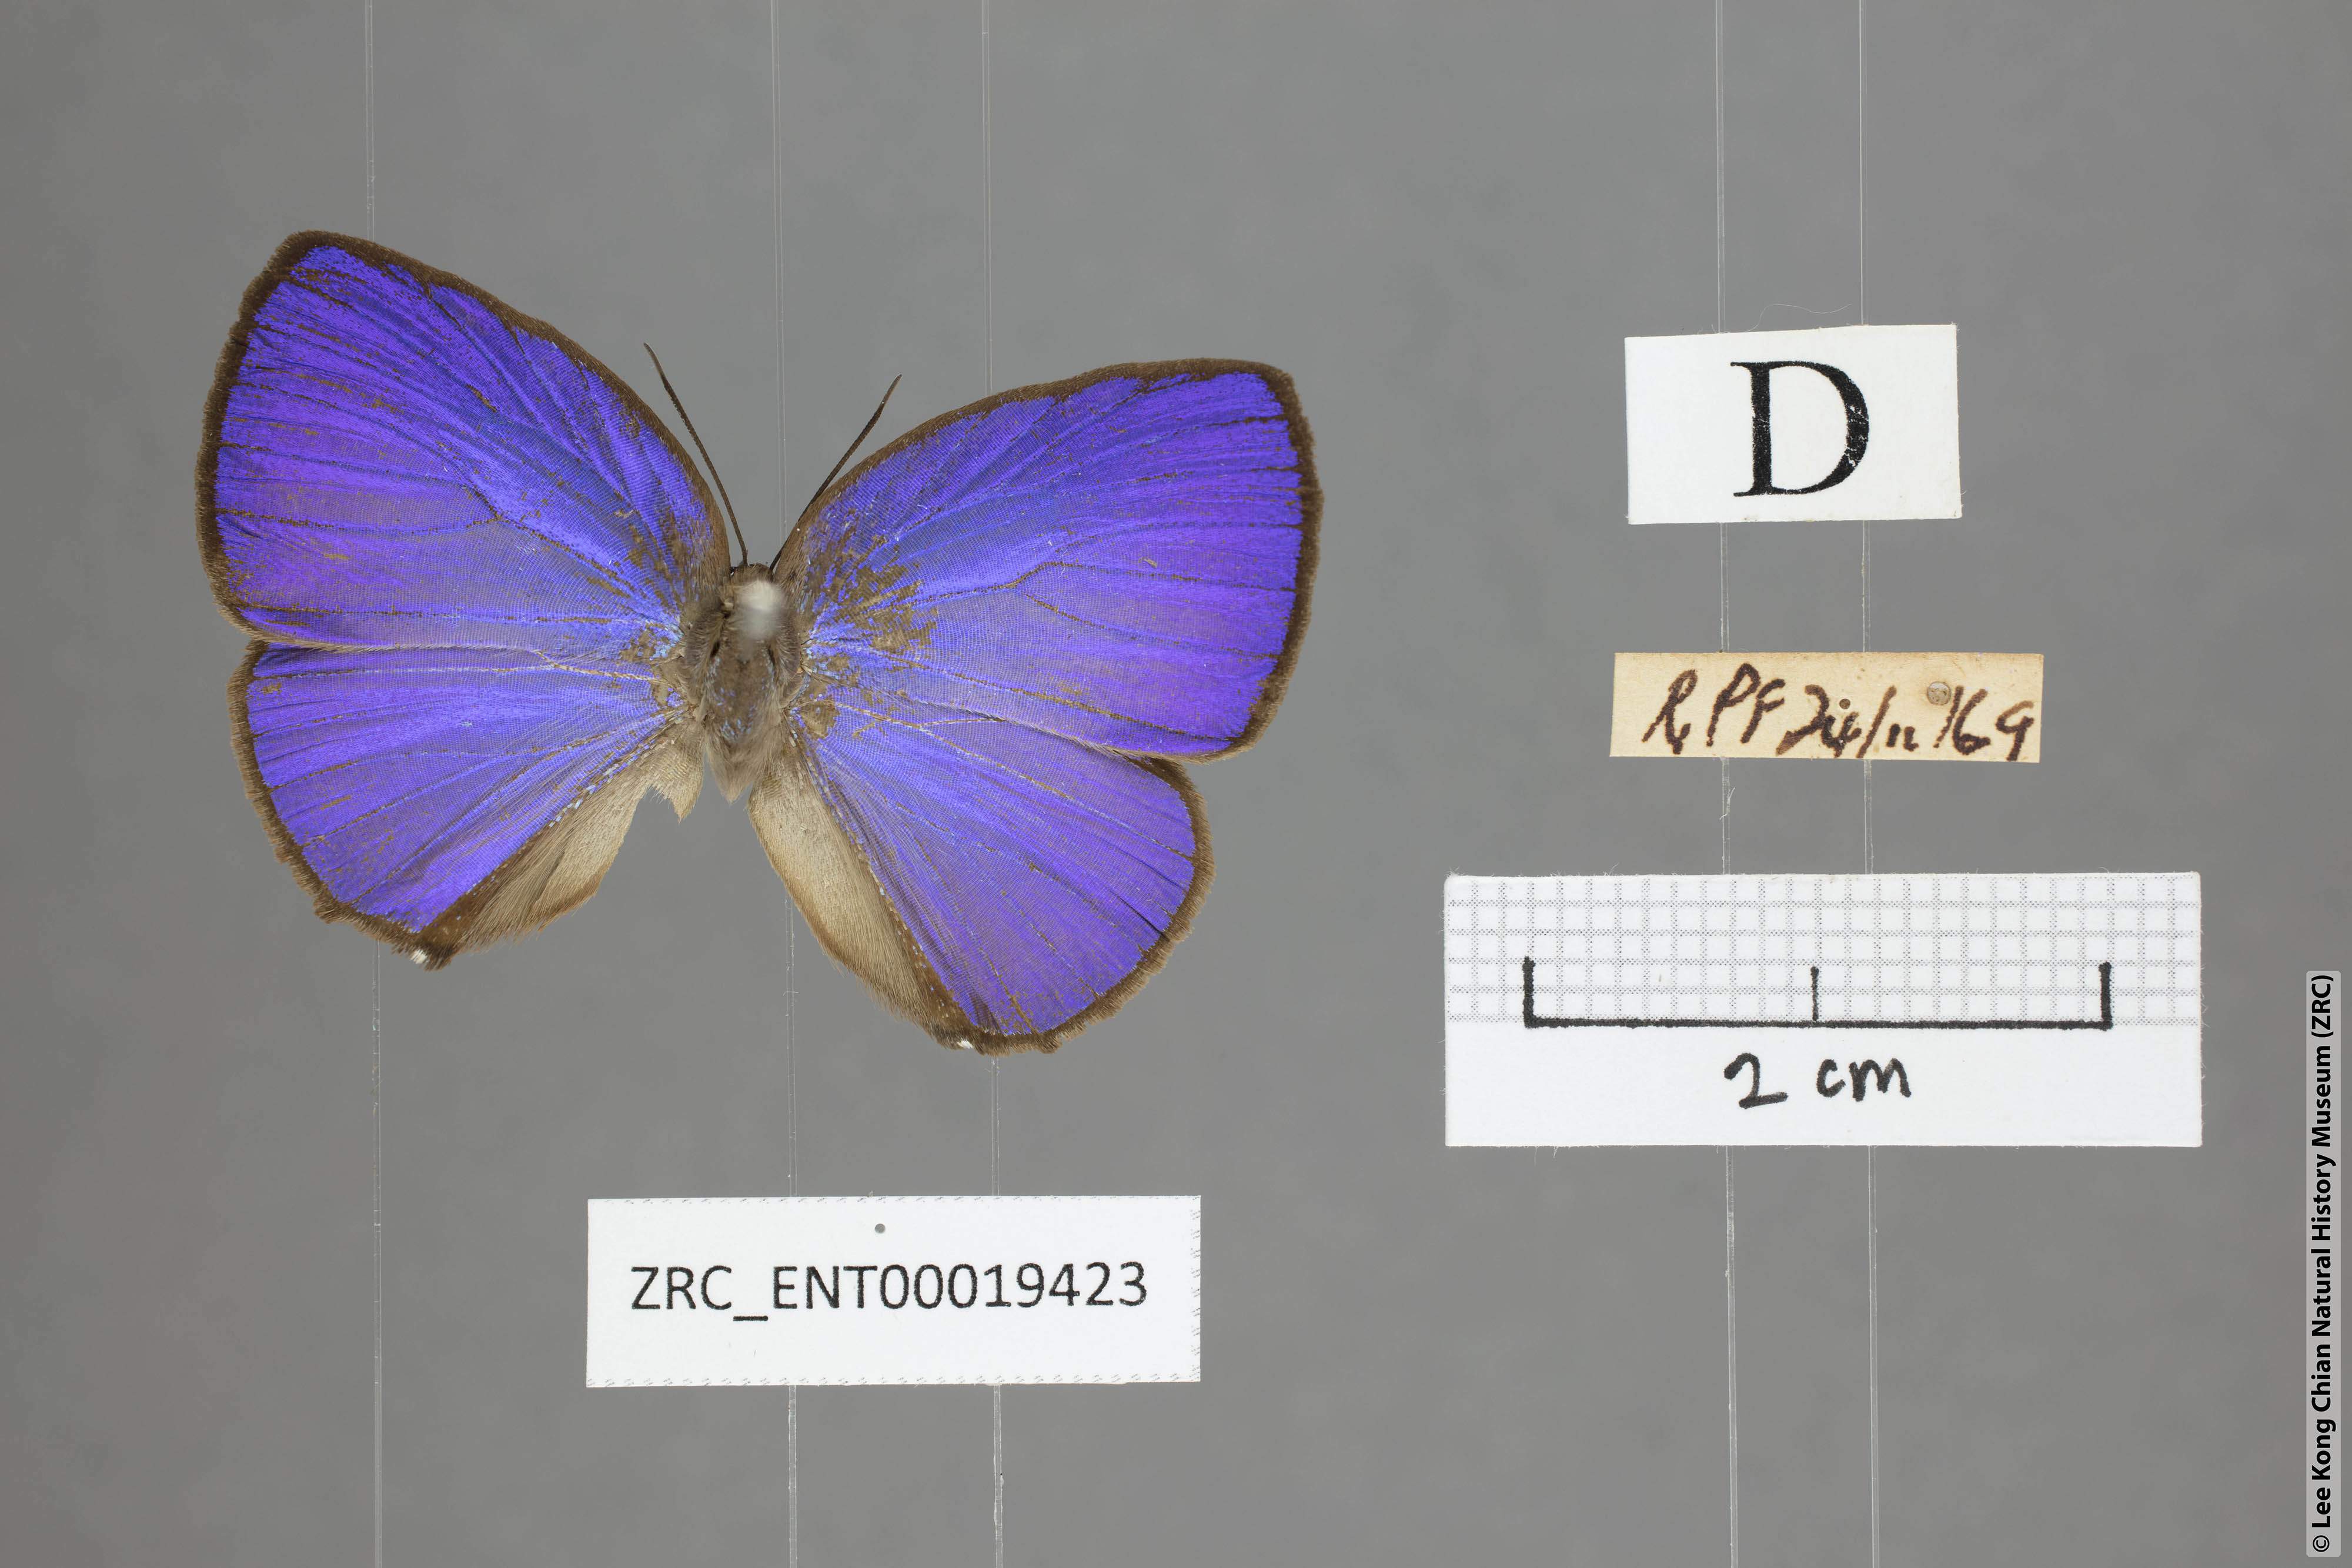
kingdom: Animalia
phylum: Arthropoda
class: Insecta
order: Lepidoptera
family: Lycaenidae
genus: Arhopala
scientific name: Arhopala epimuta
